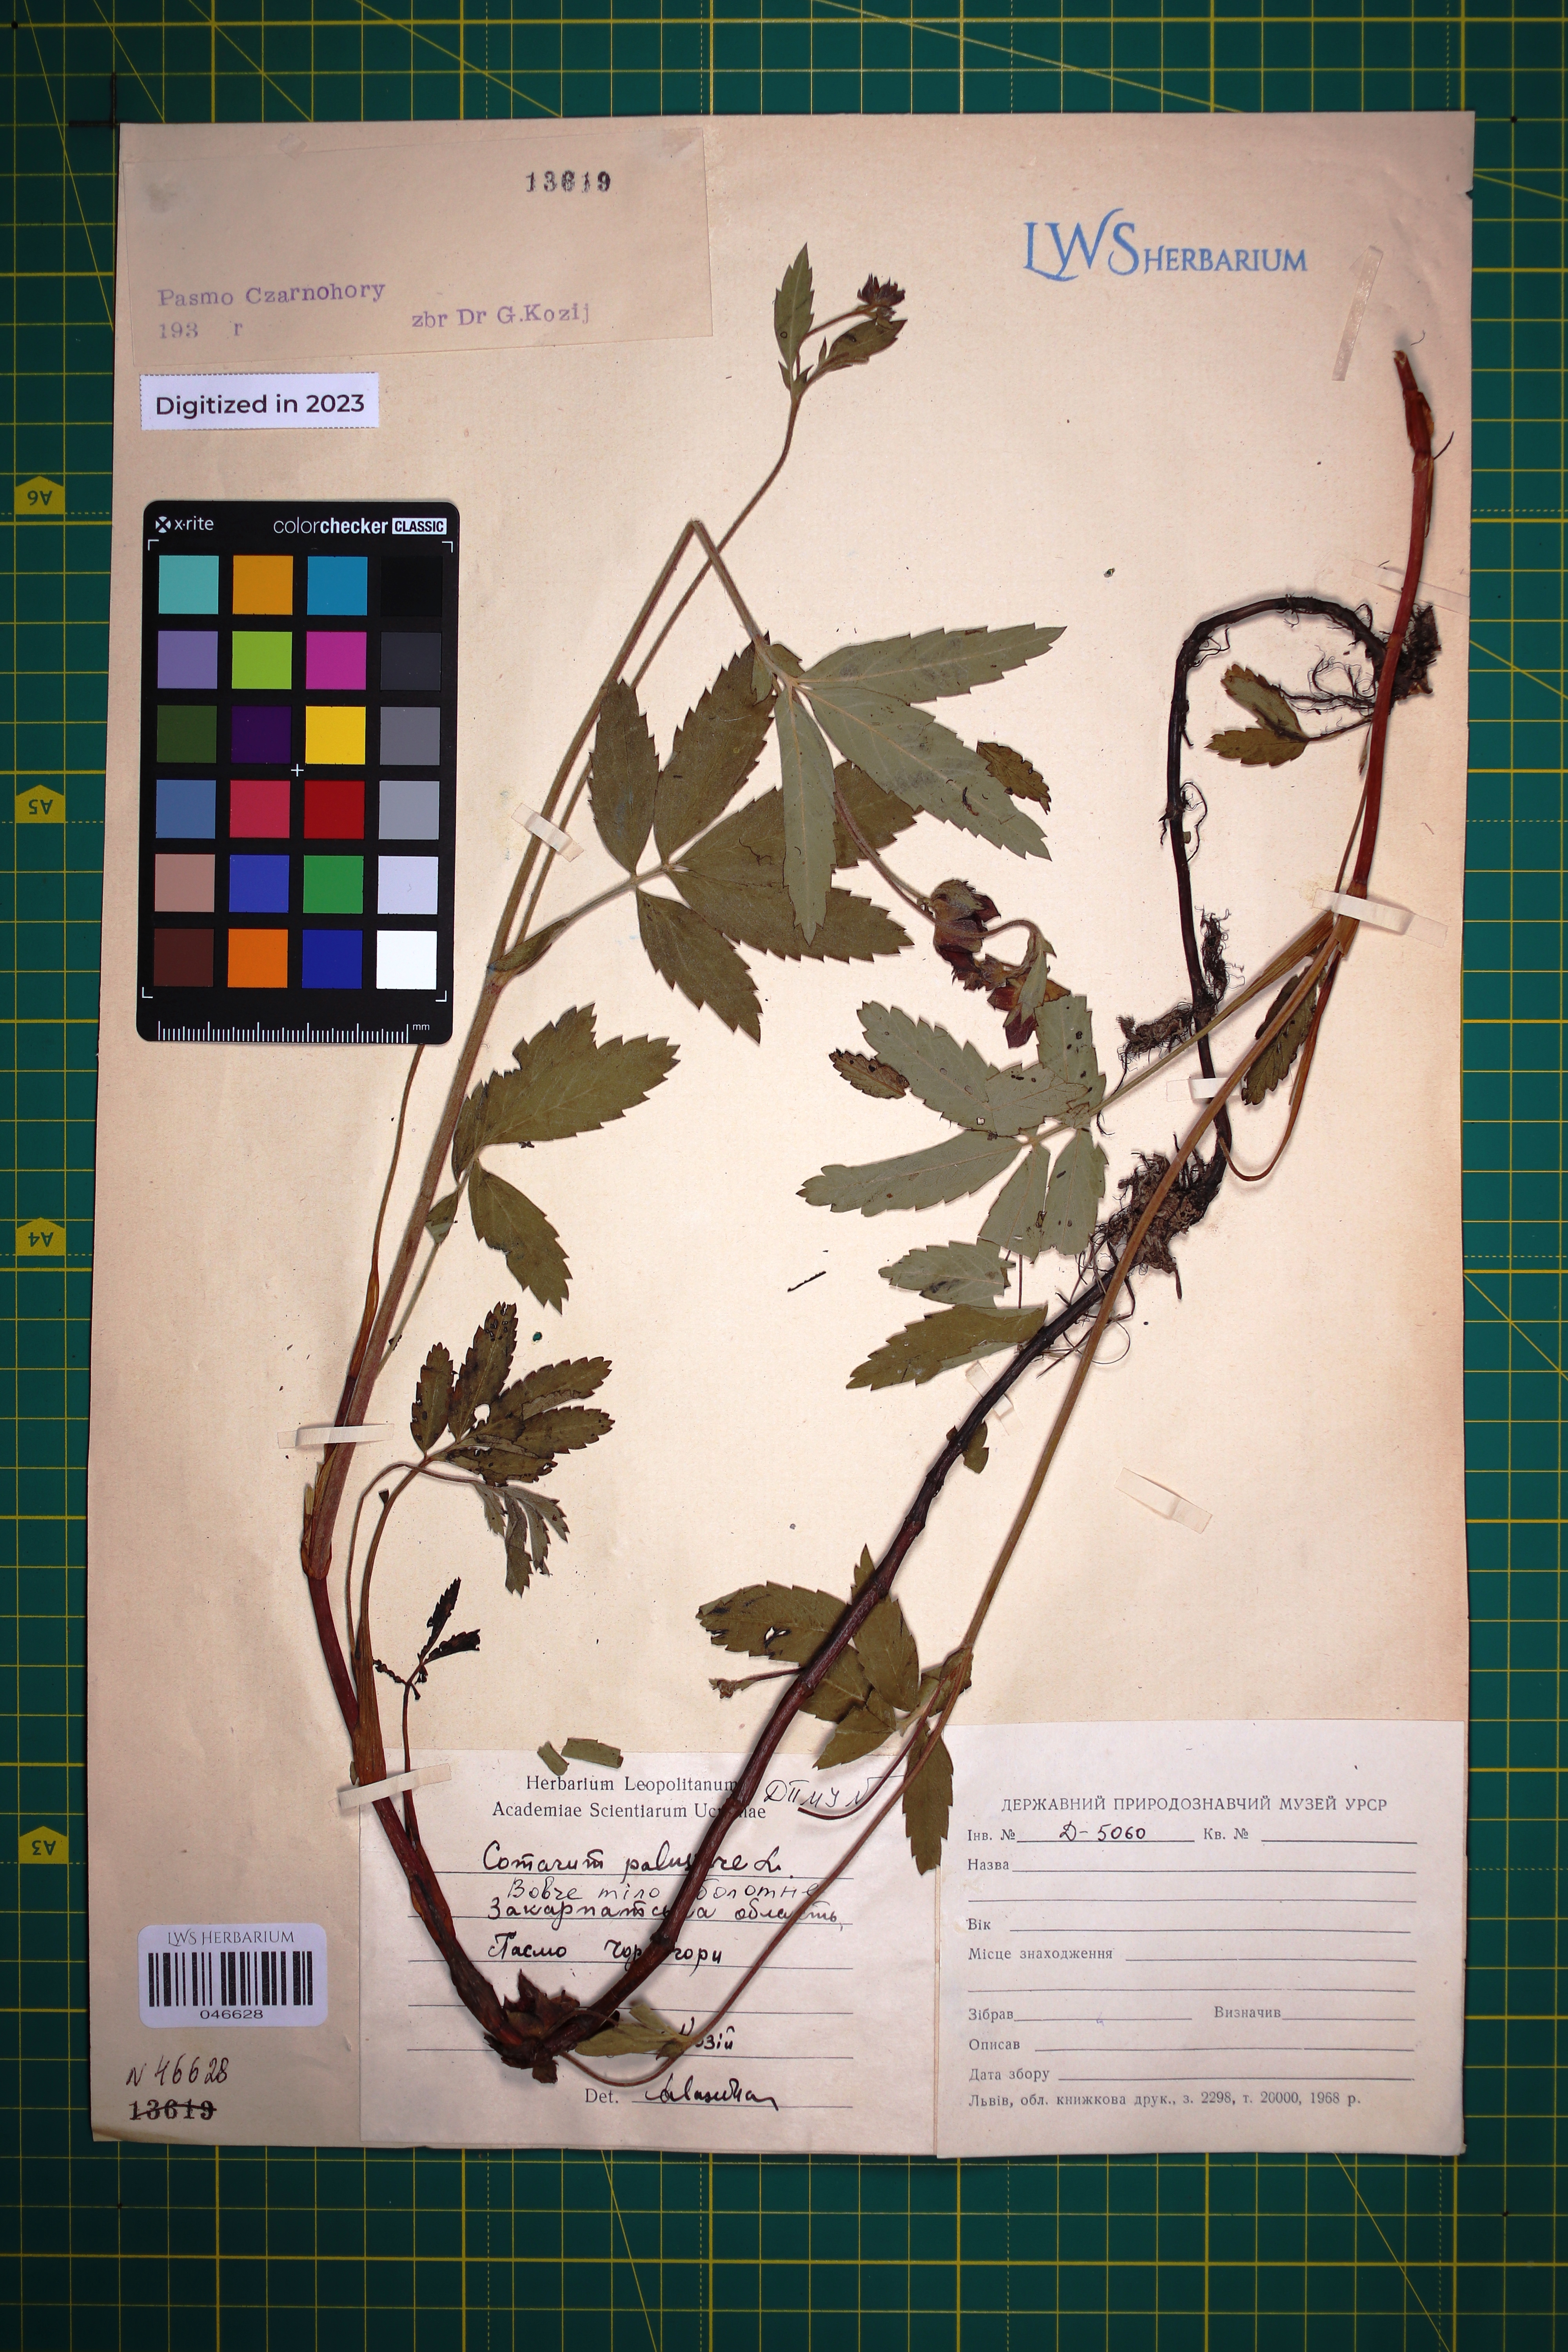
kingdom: Plantae
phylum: Tracheophyta
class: Magnoliopsida
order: Rosales
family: Rosaceae
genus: Comarum
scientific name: Comarum palustre
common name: Marsh cinquefoil
